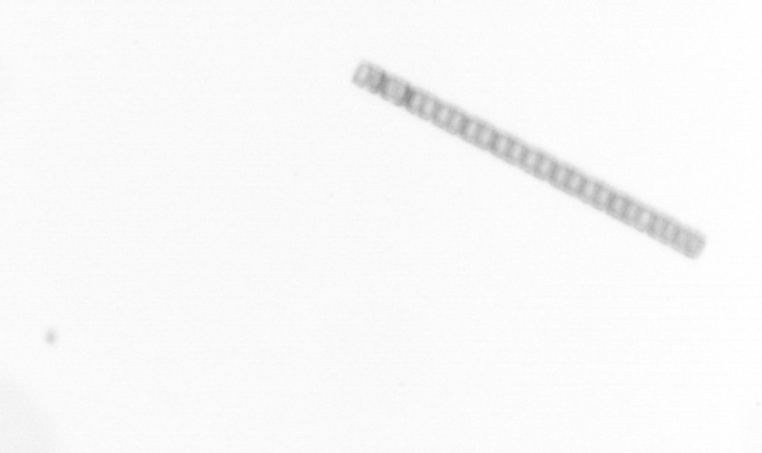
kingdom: Chromista
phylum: Ochrophyta
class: Bacillariophyceae
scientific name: Bacillariophyceae
